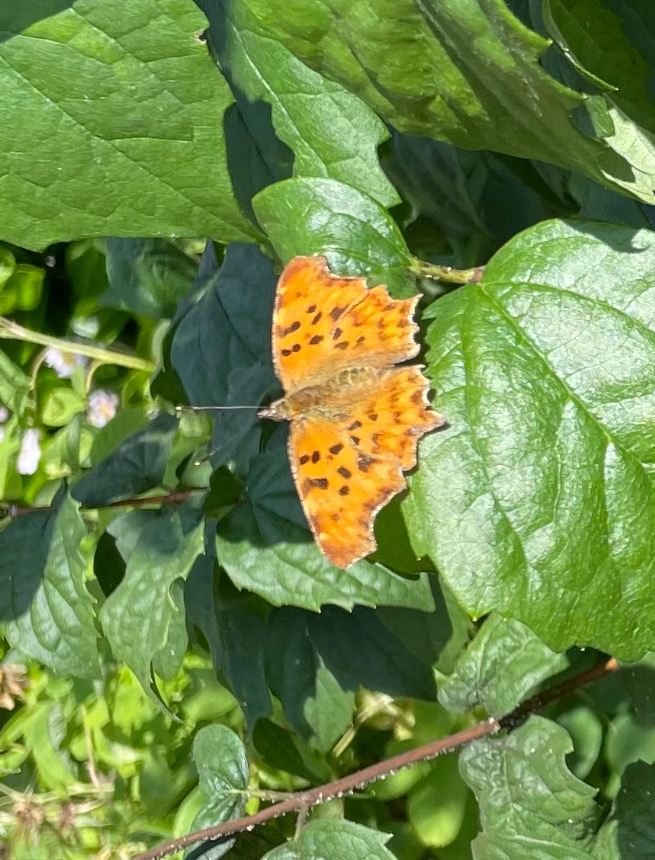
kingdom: Animalia
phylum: Arthropoda
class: Insecta
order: Lepidoptera
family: Nymphalidae
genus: Polygonia
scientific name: Polygonia c-album
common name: Det hvide C
